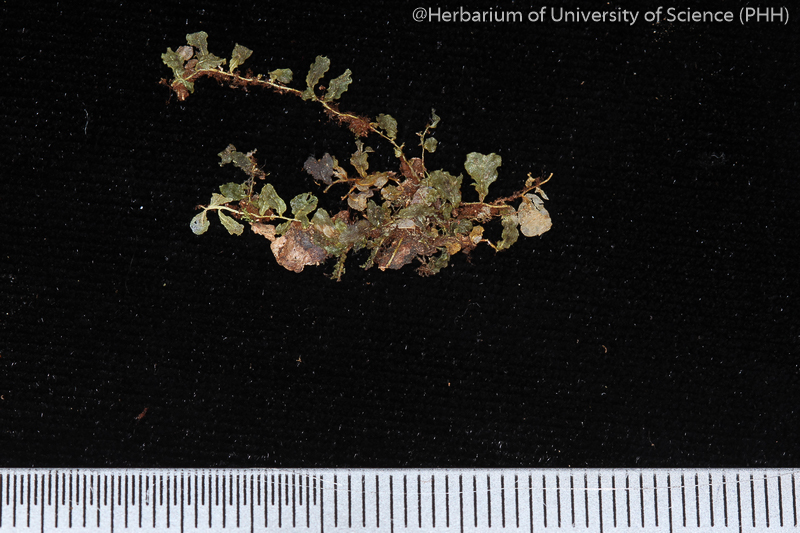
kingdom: Plantae
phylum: Bryophyta
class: Bryopsida
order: Bryales
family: Mniaceae
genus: Plagiomnium
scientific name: Plagiomnium succulentum
